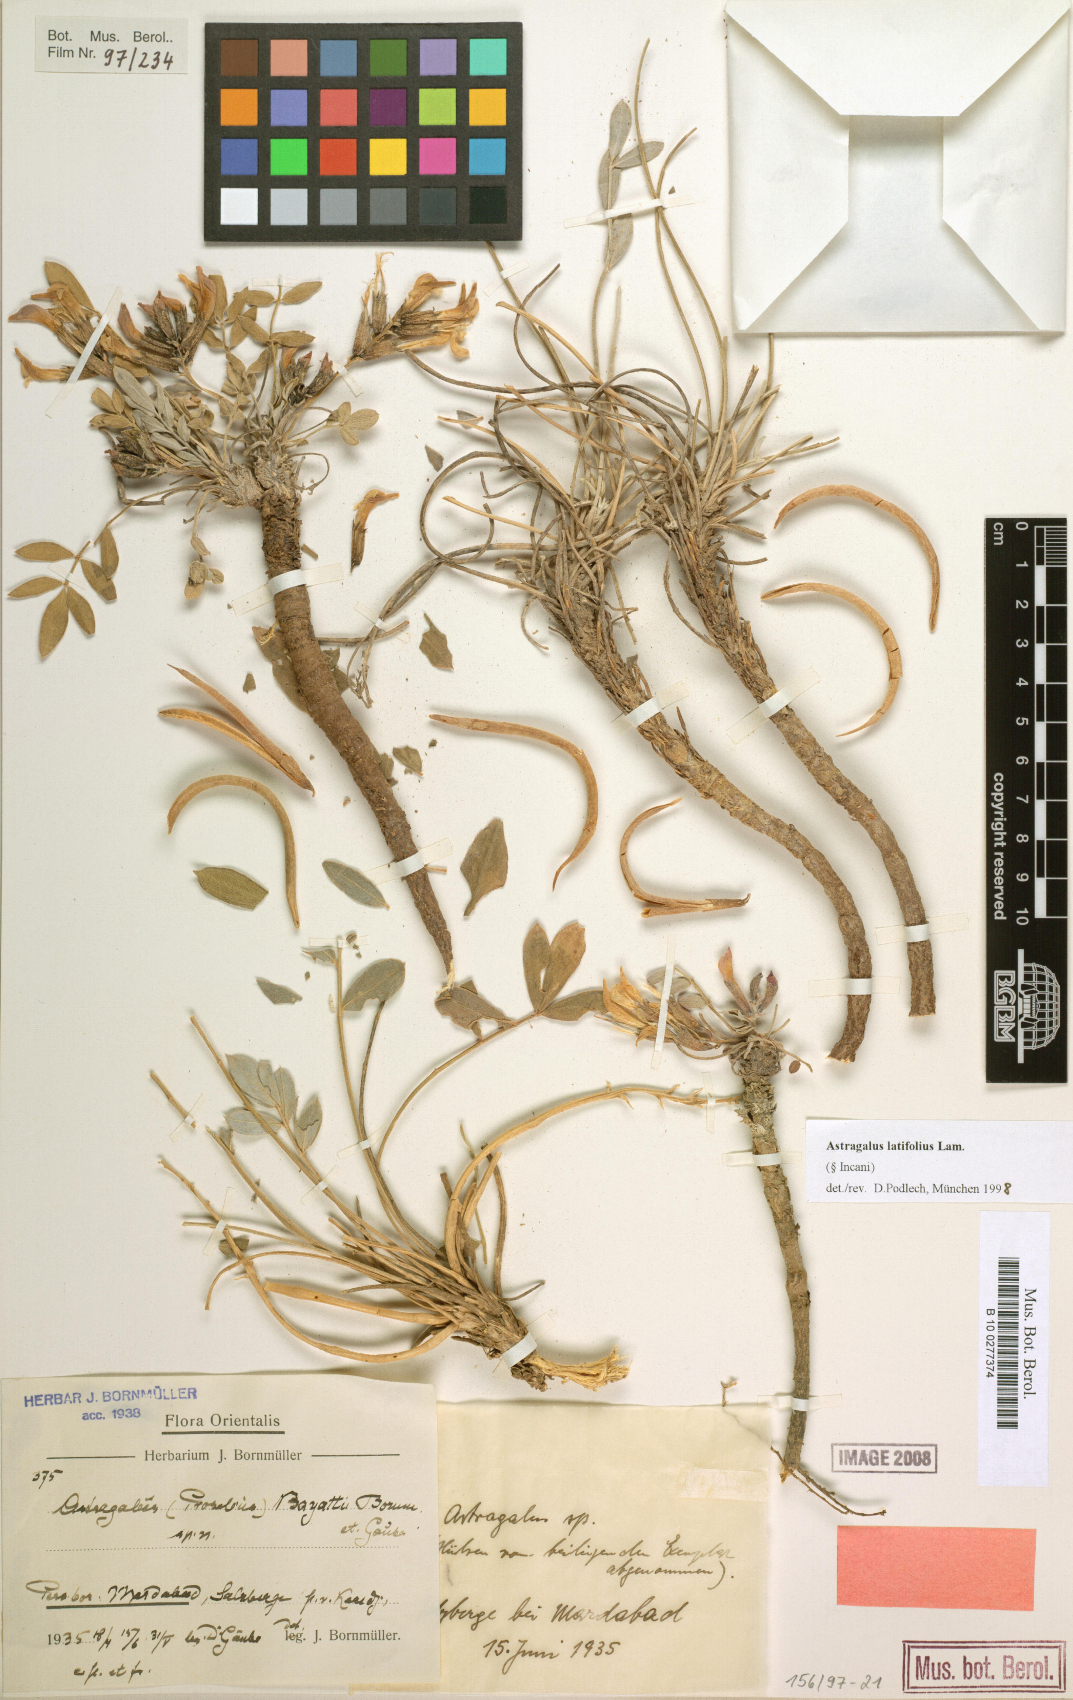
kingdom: Plantae
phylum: Tracheophyta
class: Magnoliopsida
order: Fabales
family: Fabaceae
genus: Astragalus
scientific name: Astragalus latifolius
